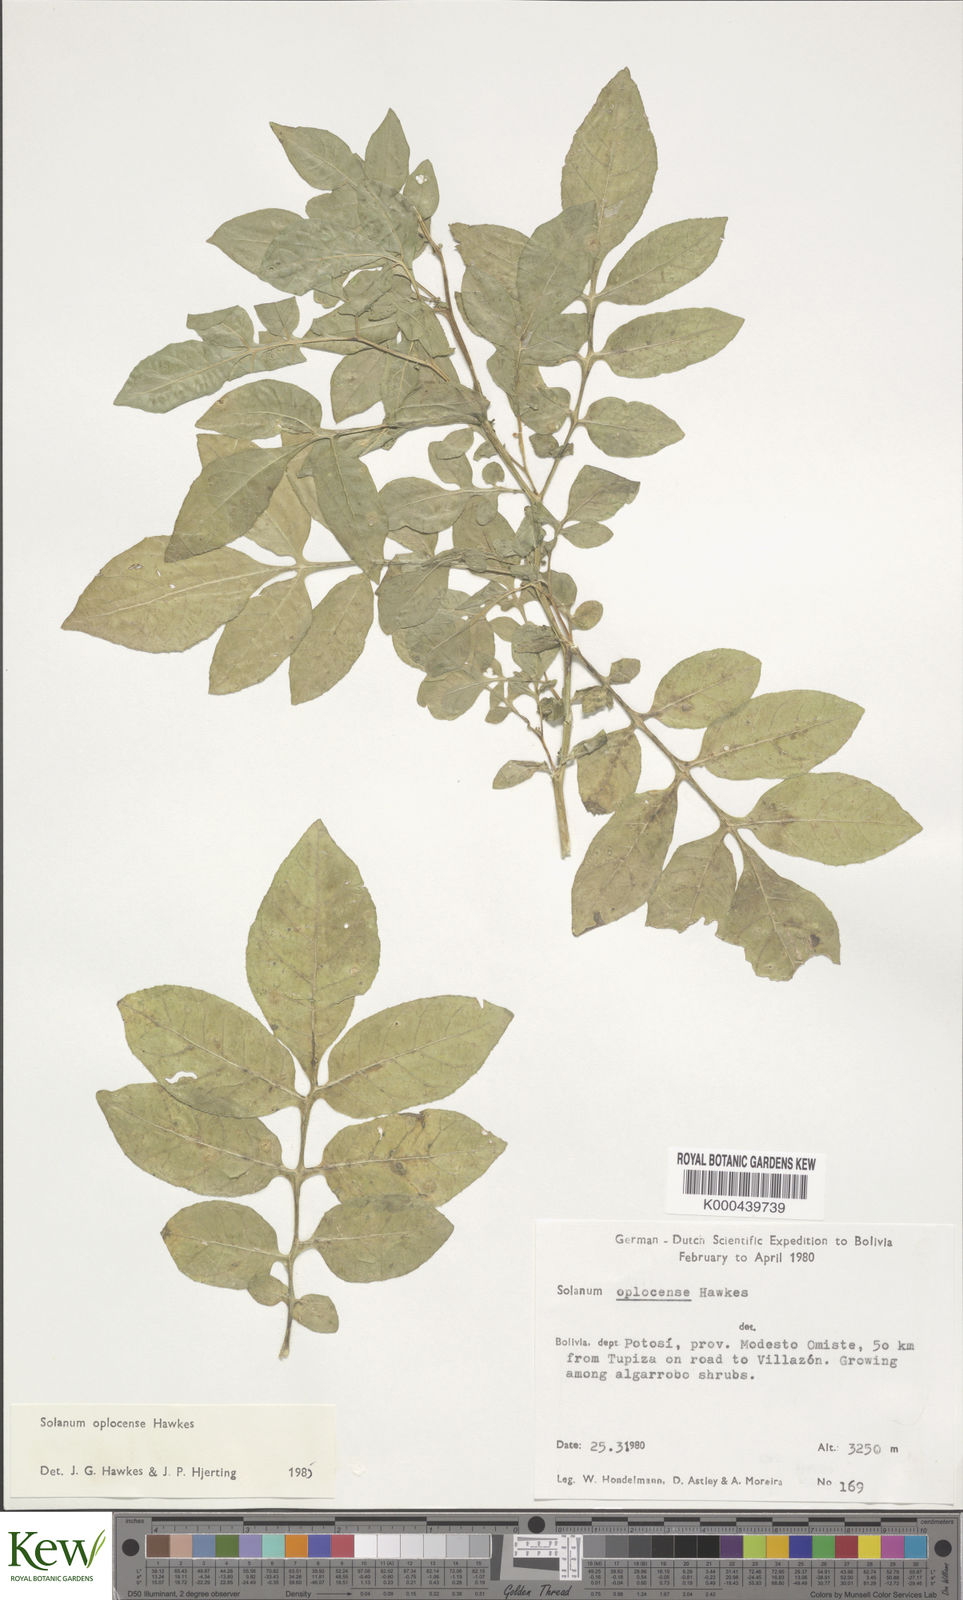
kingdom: Plantae
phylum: Tracheophyta
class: Magnoliopsida
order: Solanales
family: Solanaceae
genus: Solanum
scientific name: Solanum brevicaule
